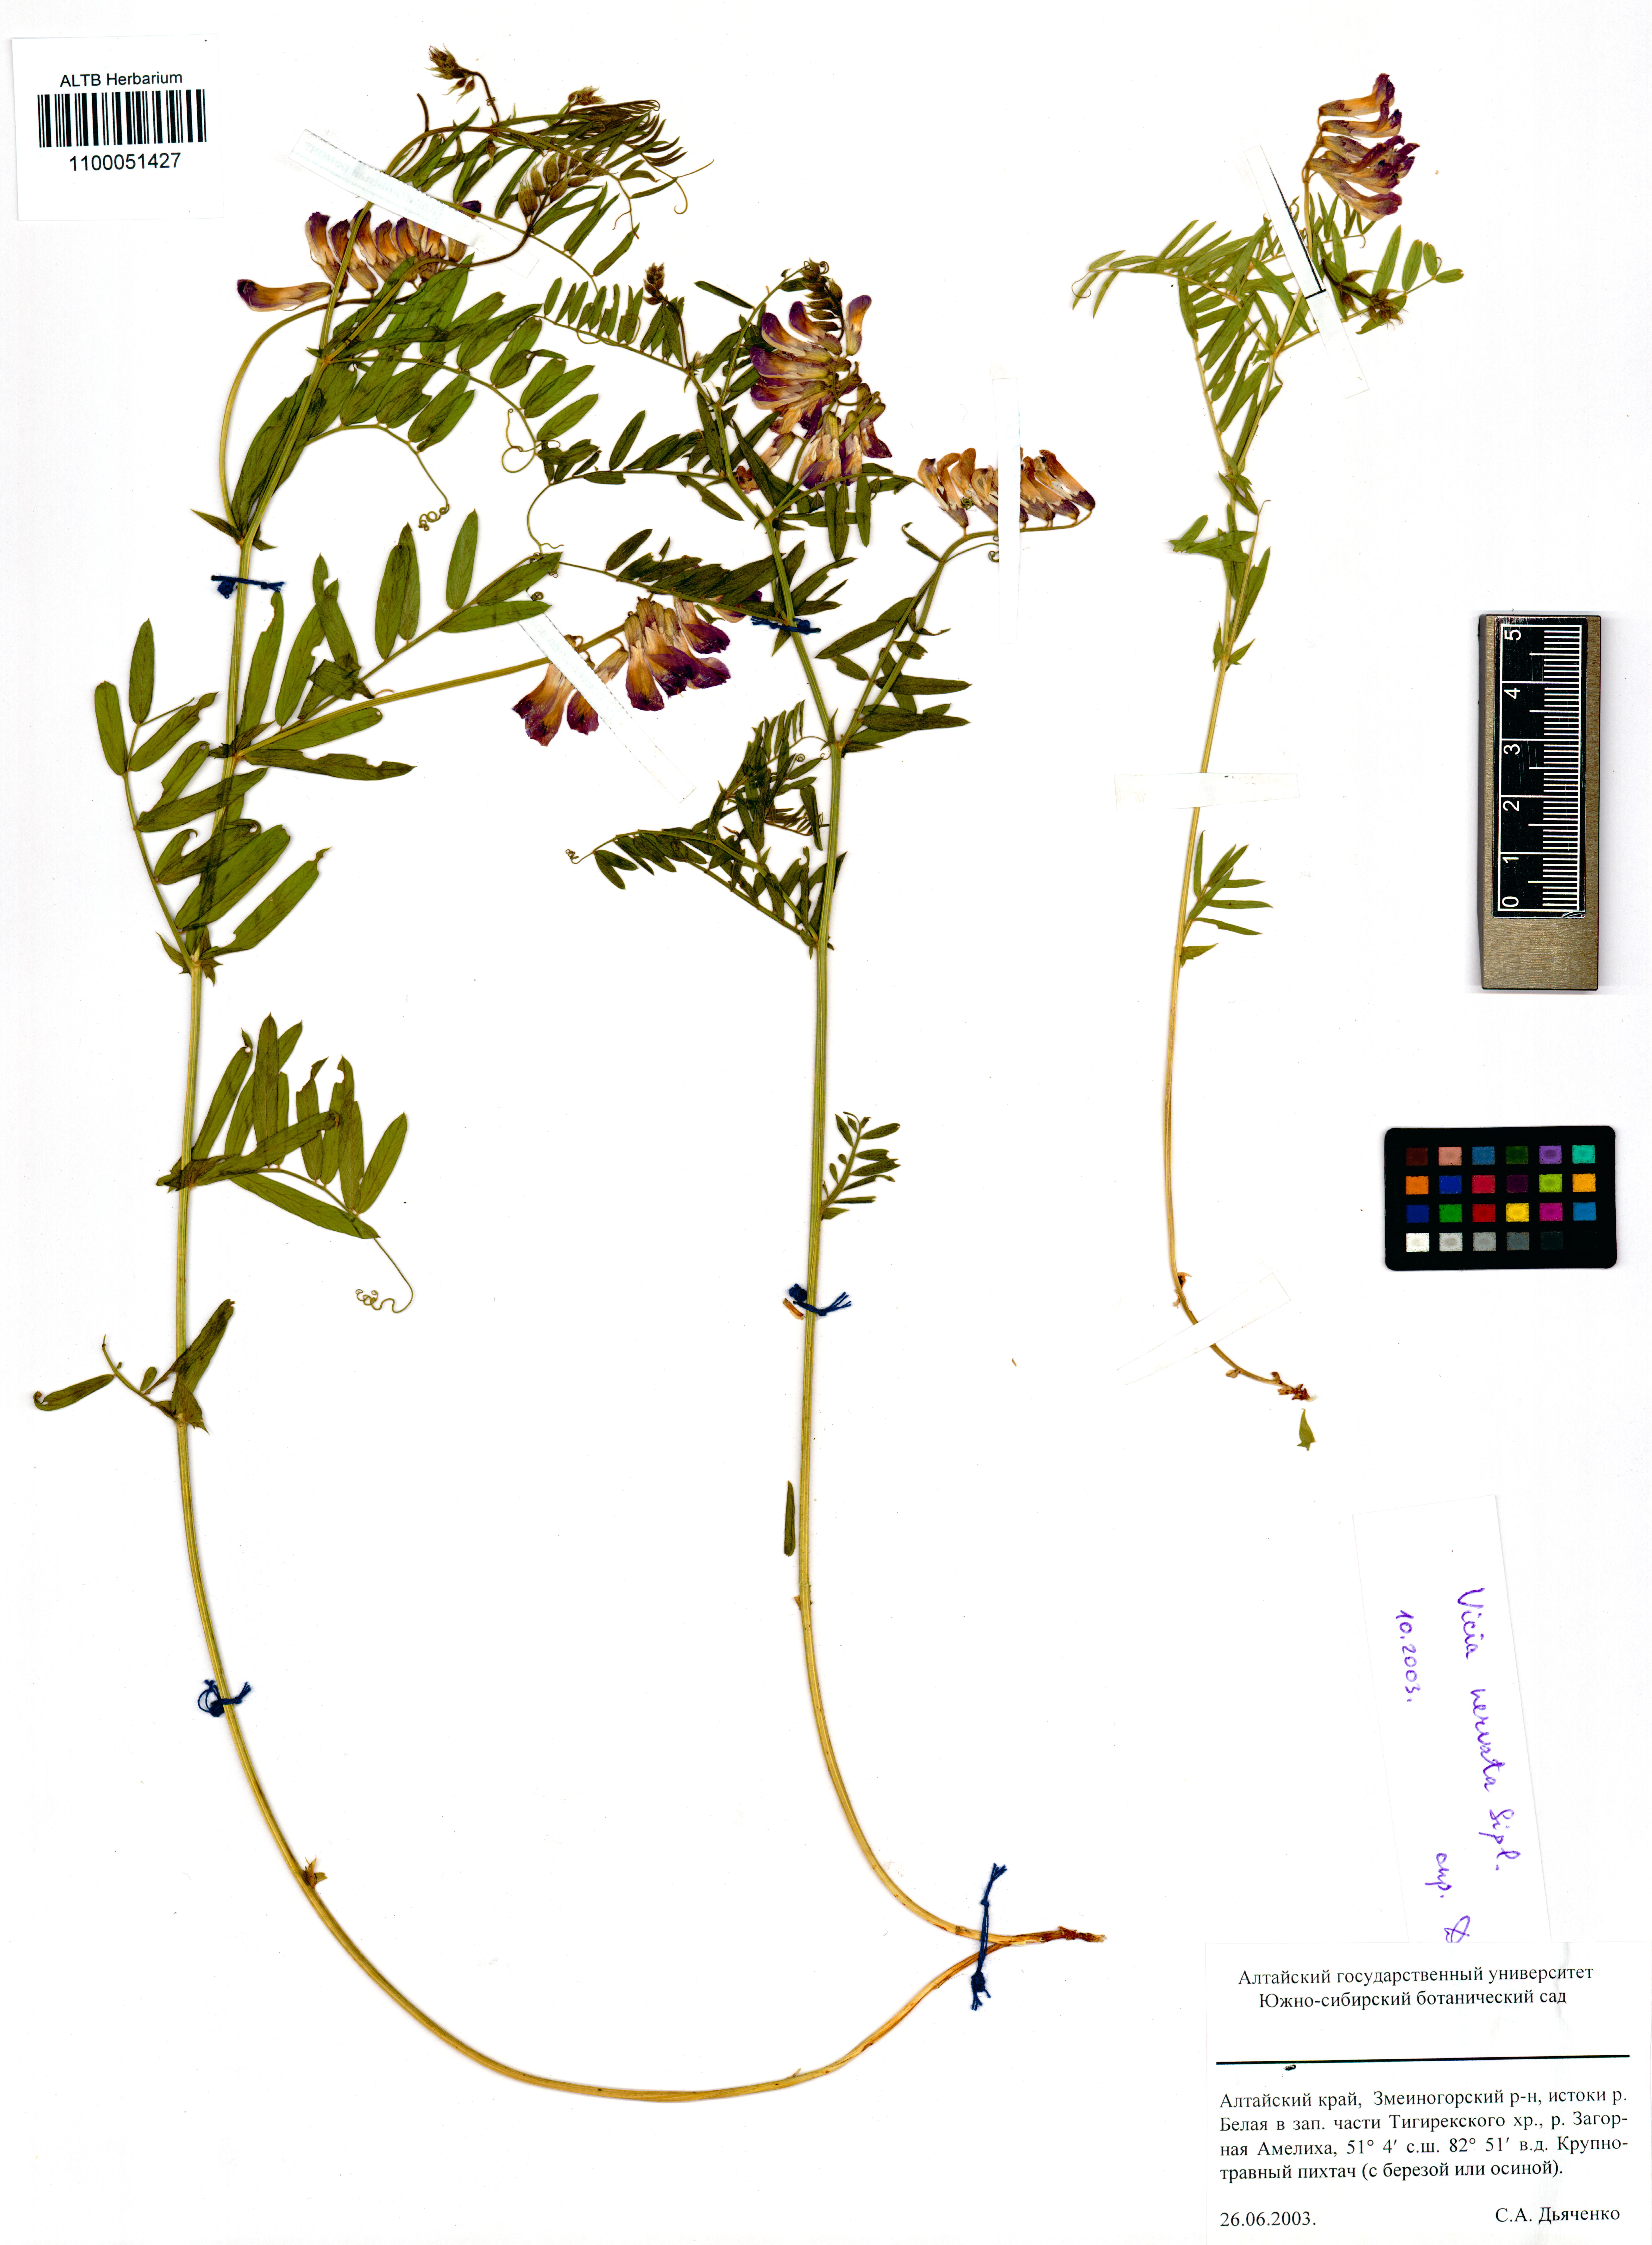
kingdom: Plantae
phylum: Tracheophyta
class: Magnoliopsida
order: Fabales
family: Fabaceae
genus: Vicia
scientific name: Vicia multicaulis
